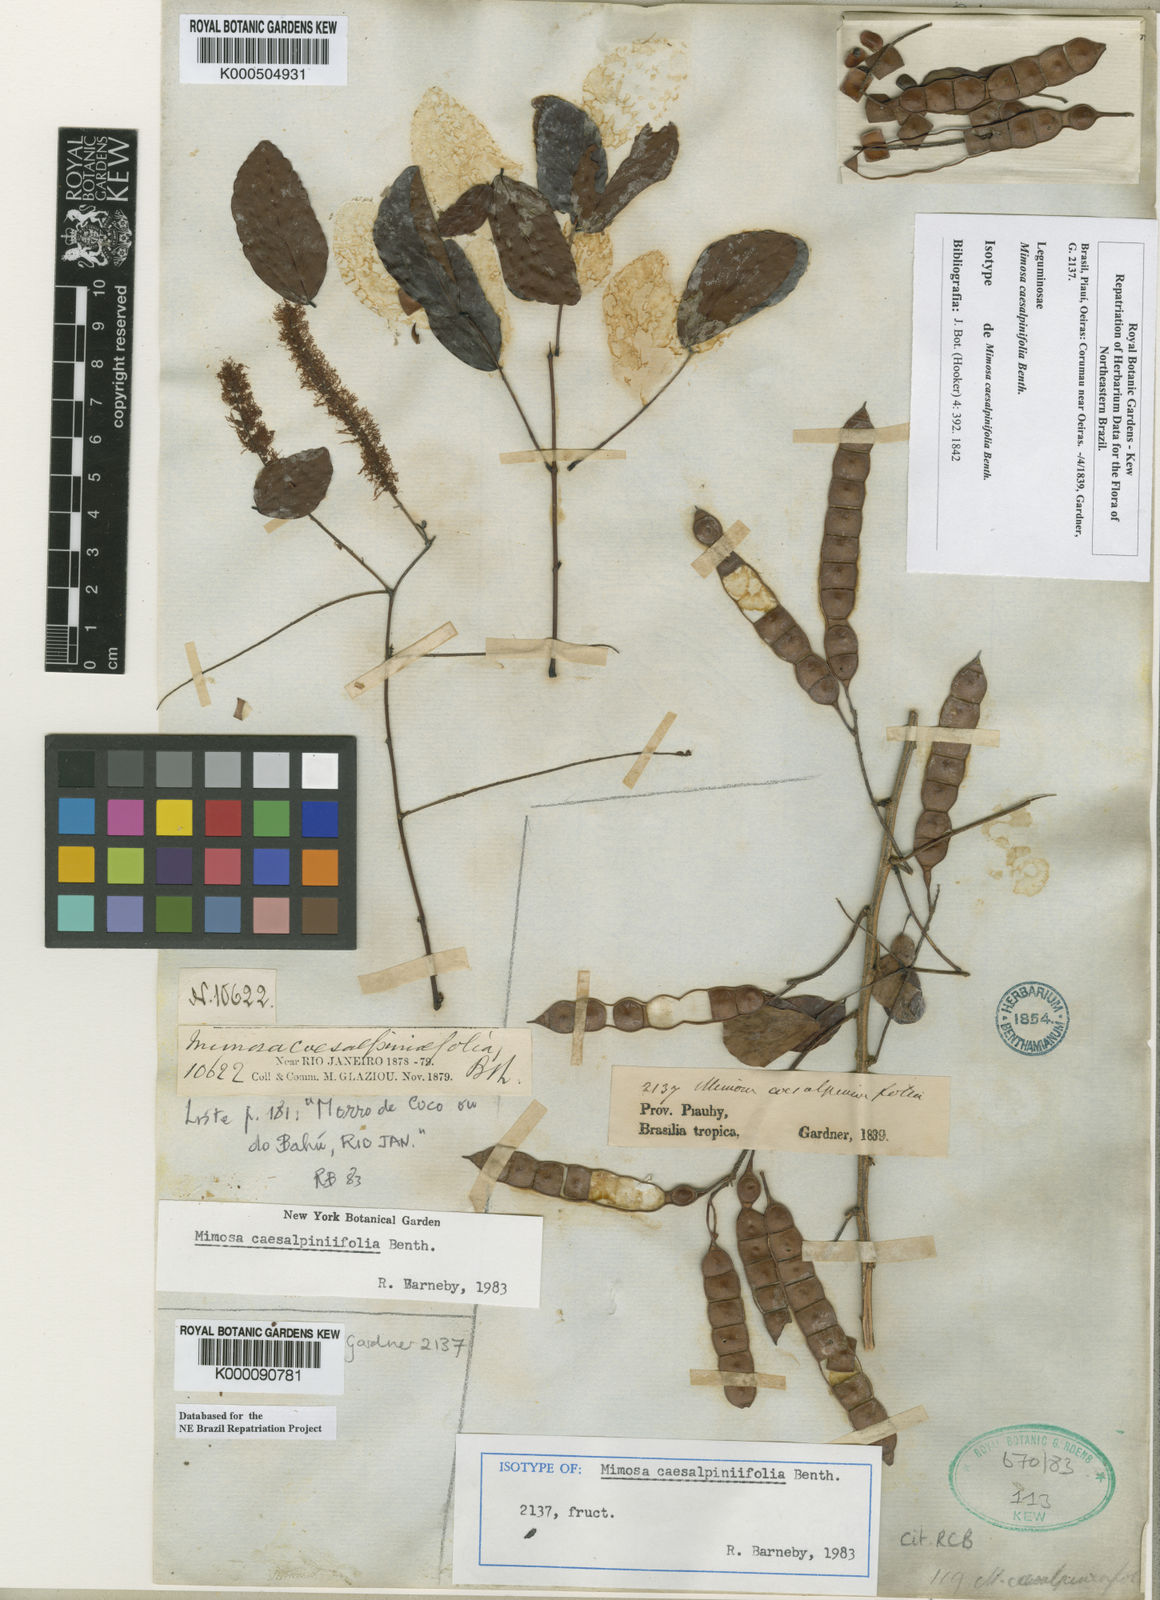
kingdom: Plantae
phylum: Tracheophyta
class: Magnoliopsida
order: Fabales
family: Fabaceae
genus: Mimosa
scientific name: Mimosa caesalpiniifolia
